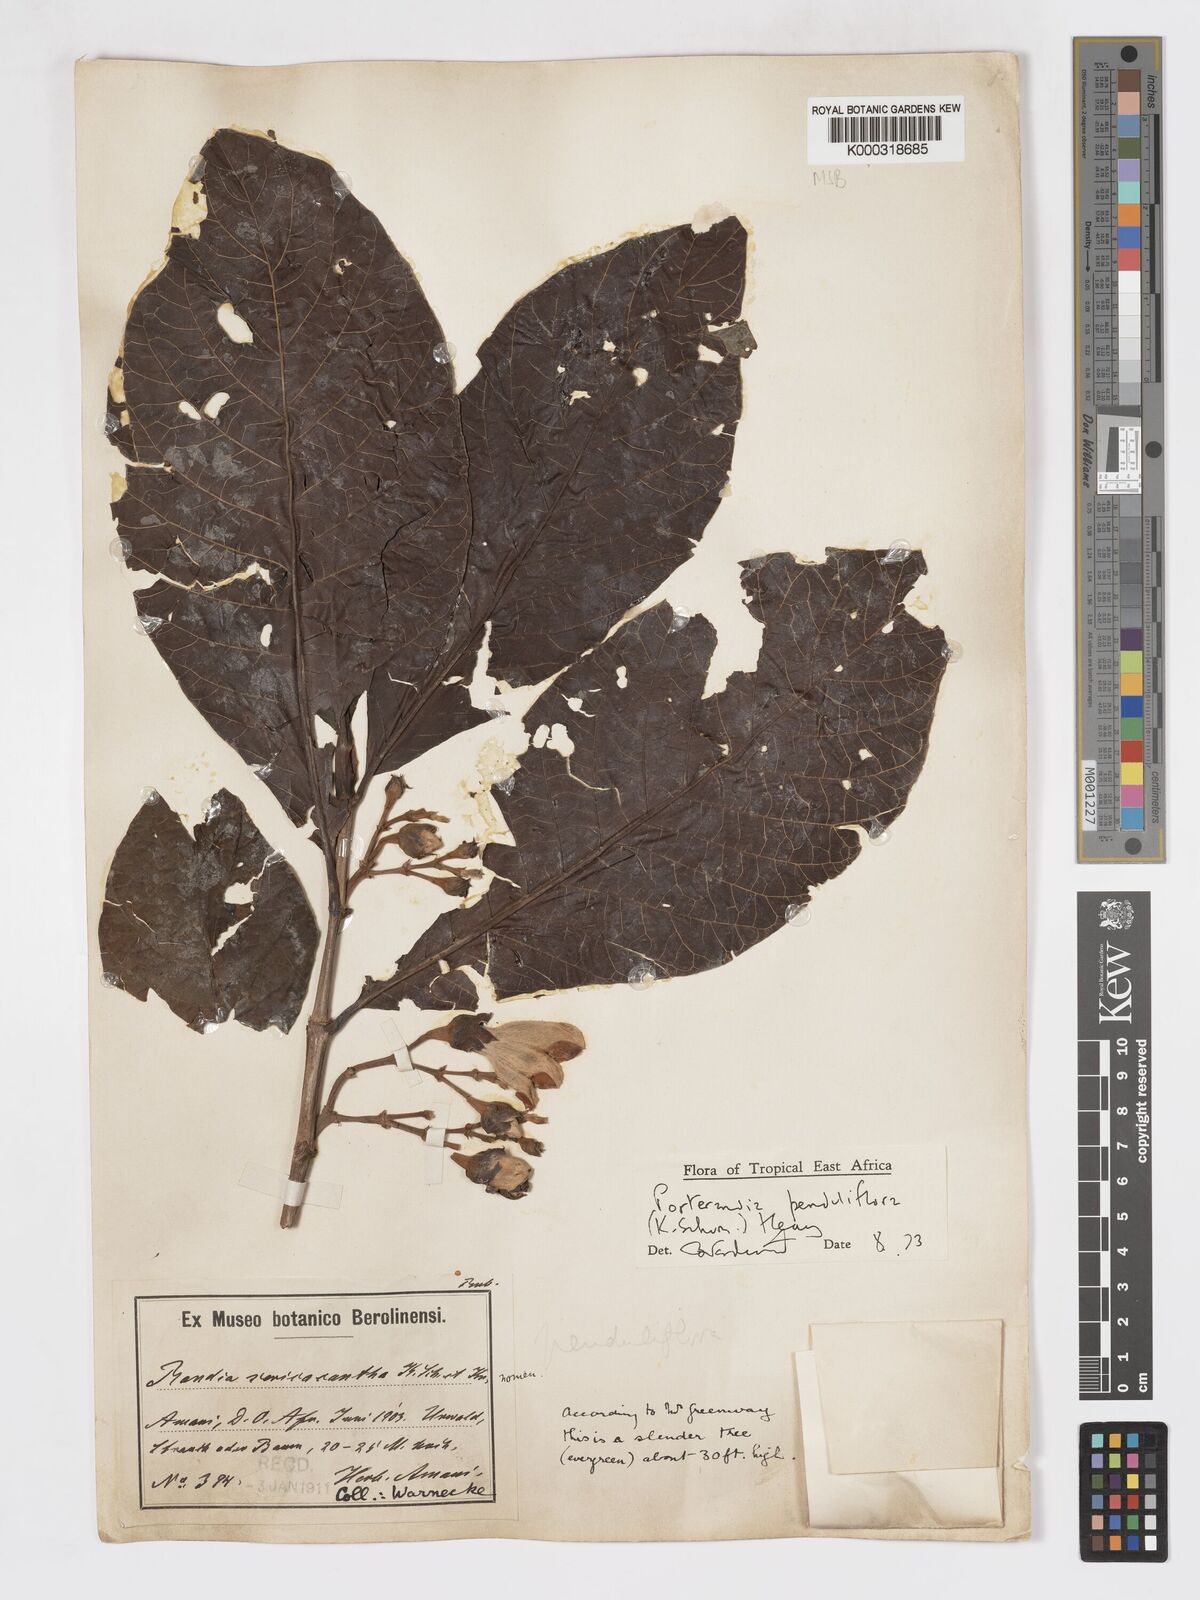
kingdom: Plantae
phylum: Tracheophyta
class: Magnoliopsida
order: Gentianales
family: Rubiaceae
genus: Aoranthe
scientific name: Aoranthe penduliflora
